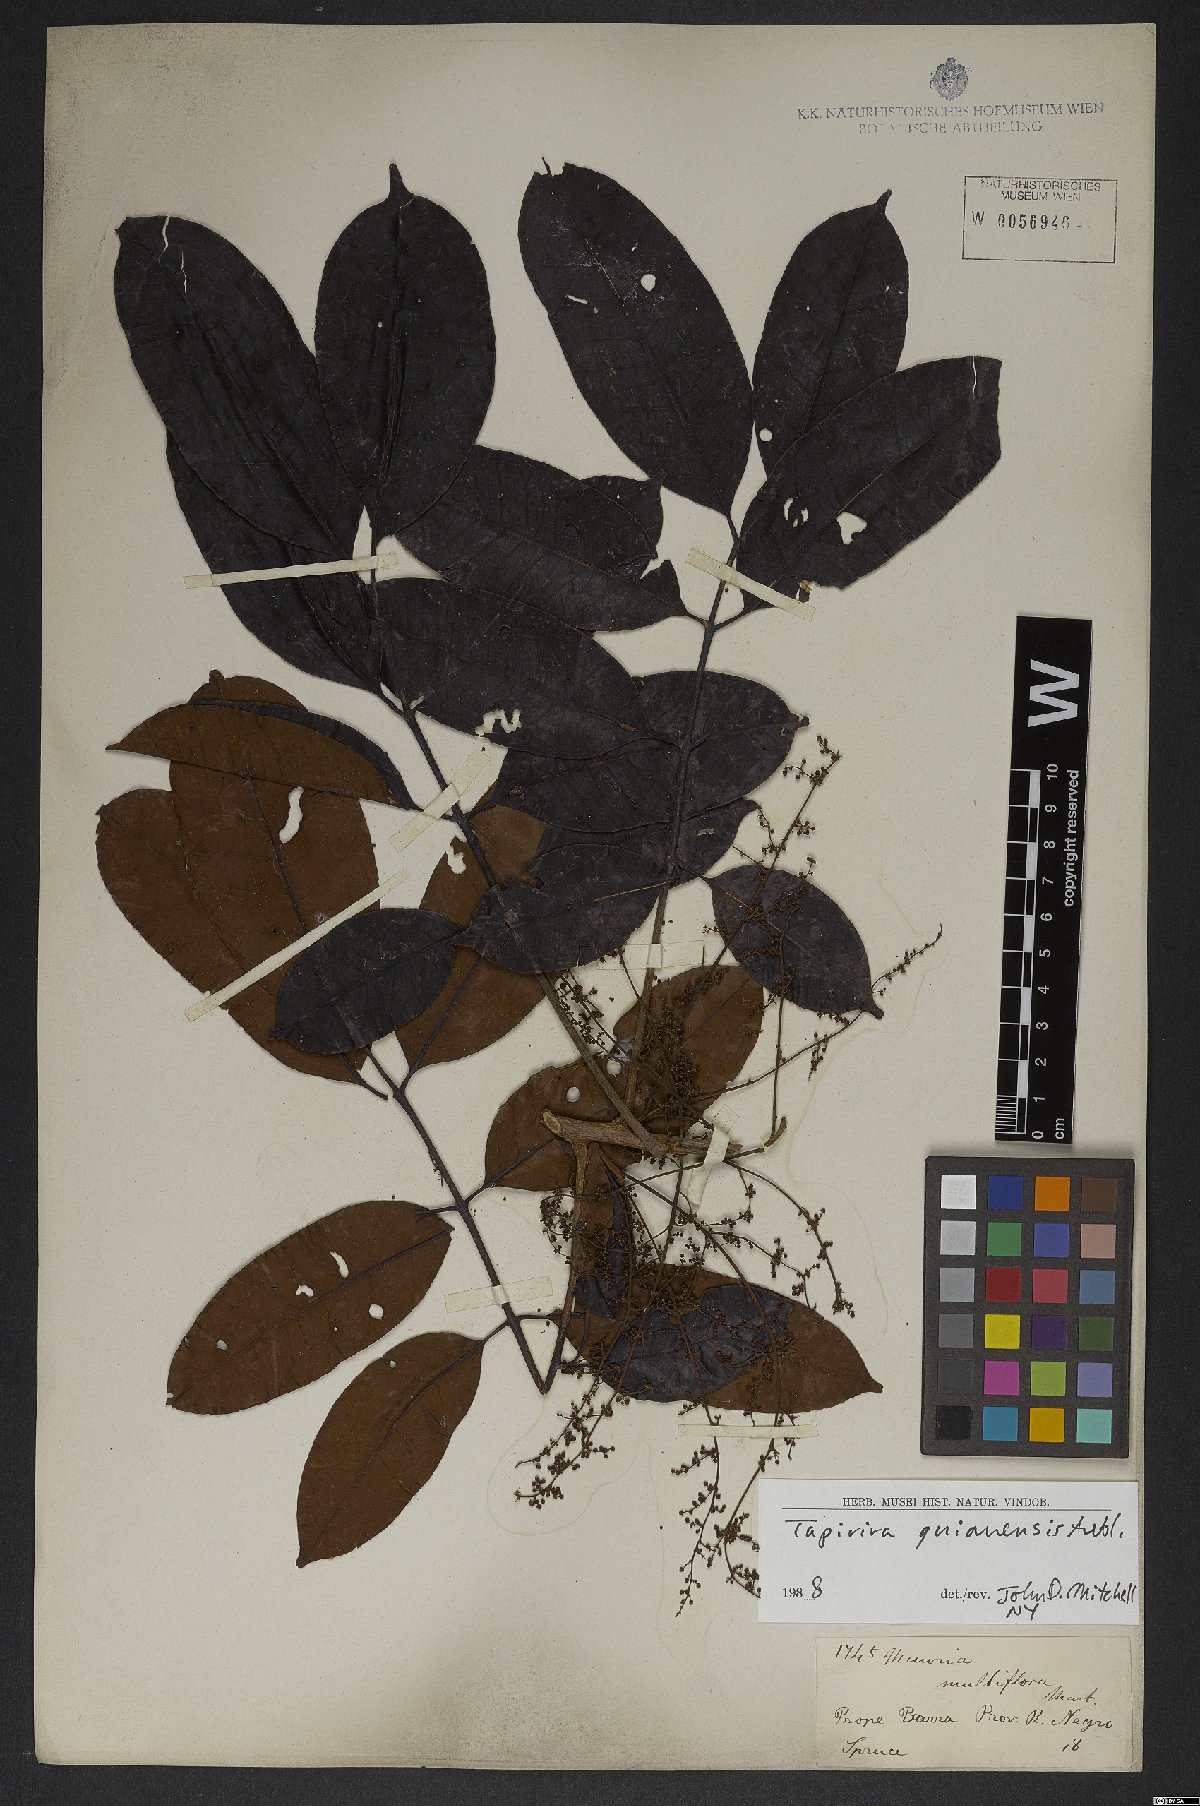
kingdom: Plantae
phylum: Tracheophyta
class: Magnoliopsida
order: Sapindales
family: Anacardiaceae
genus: Tapirira
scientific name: Tapirira guianensis
